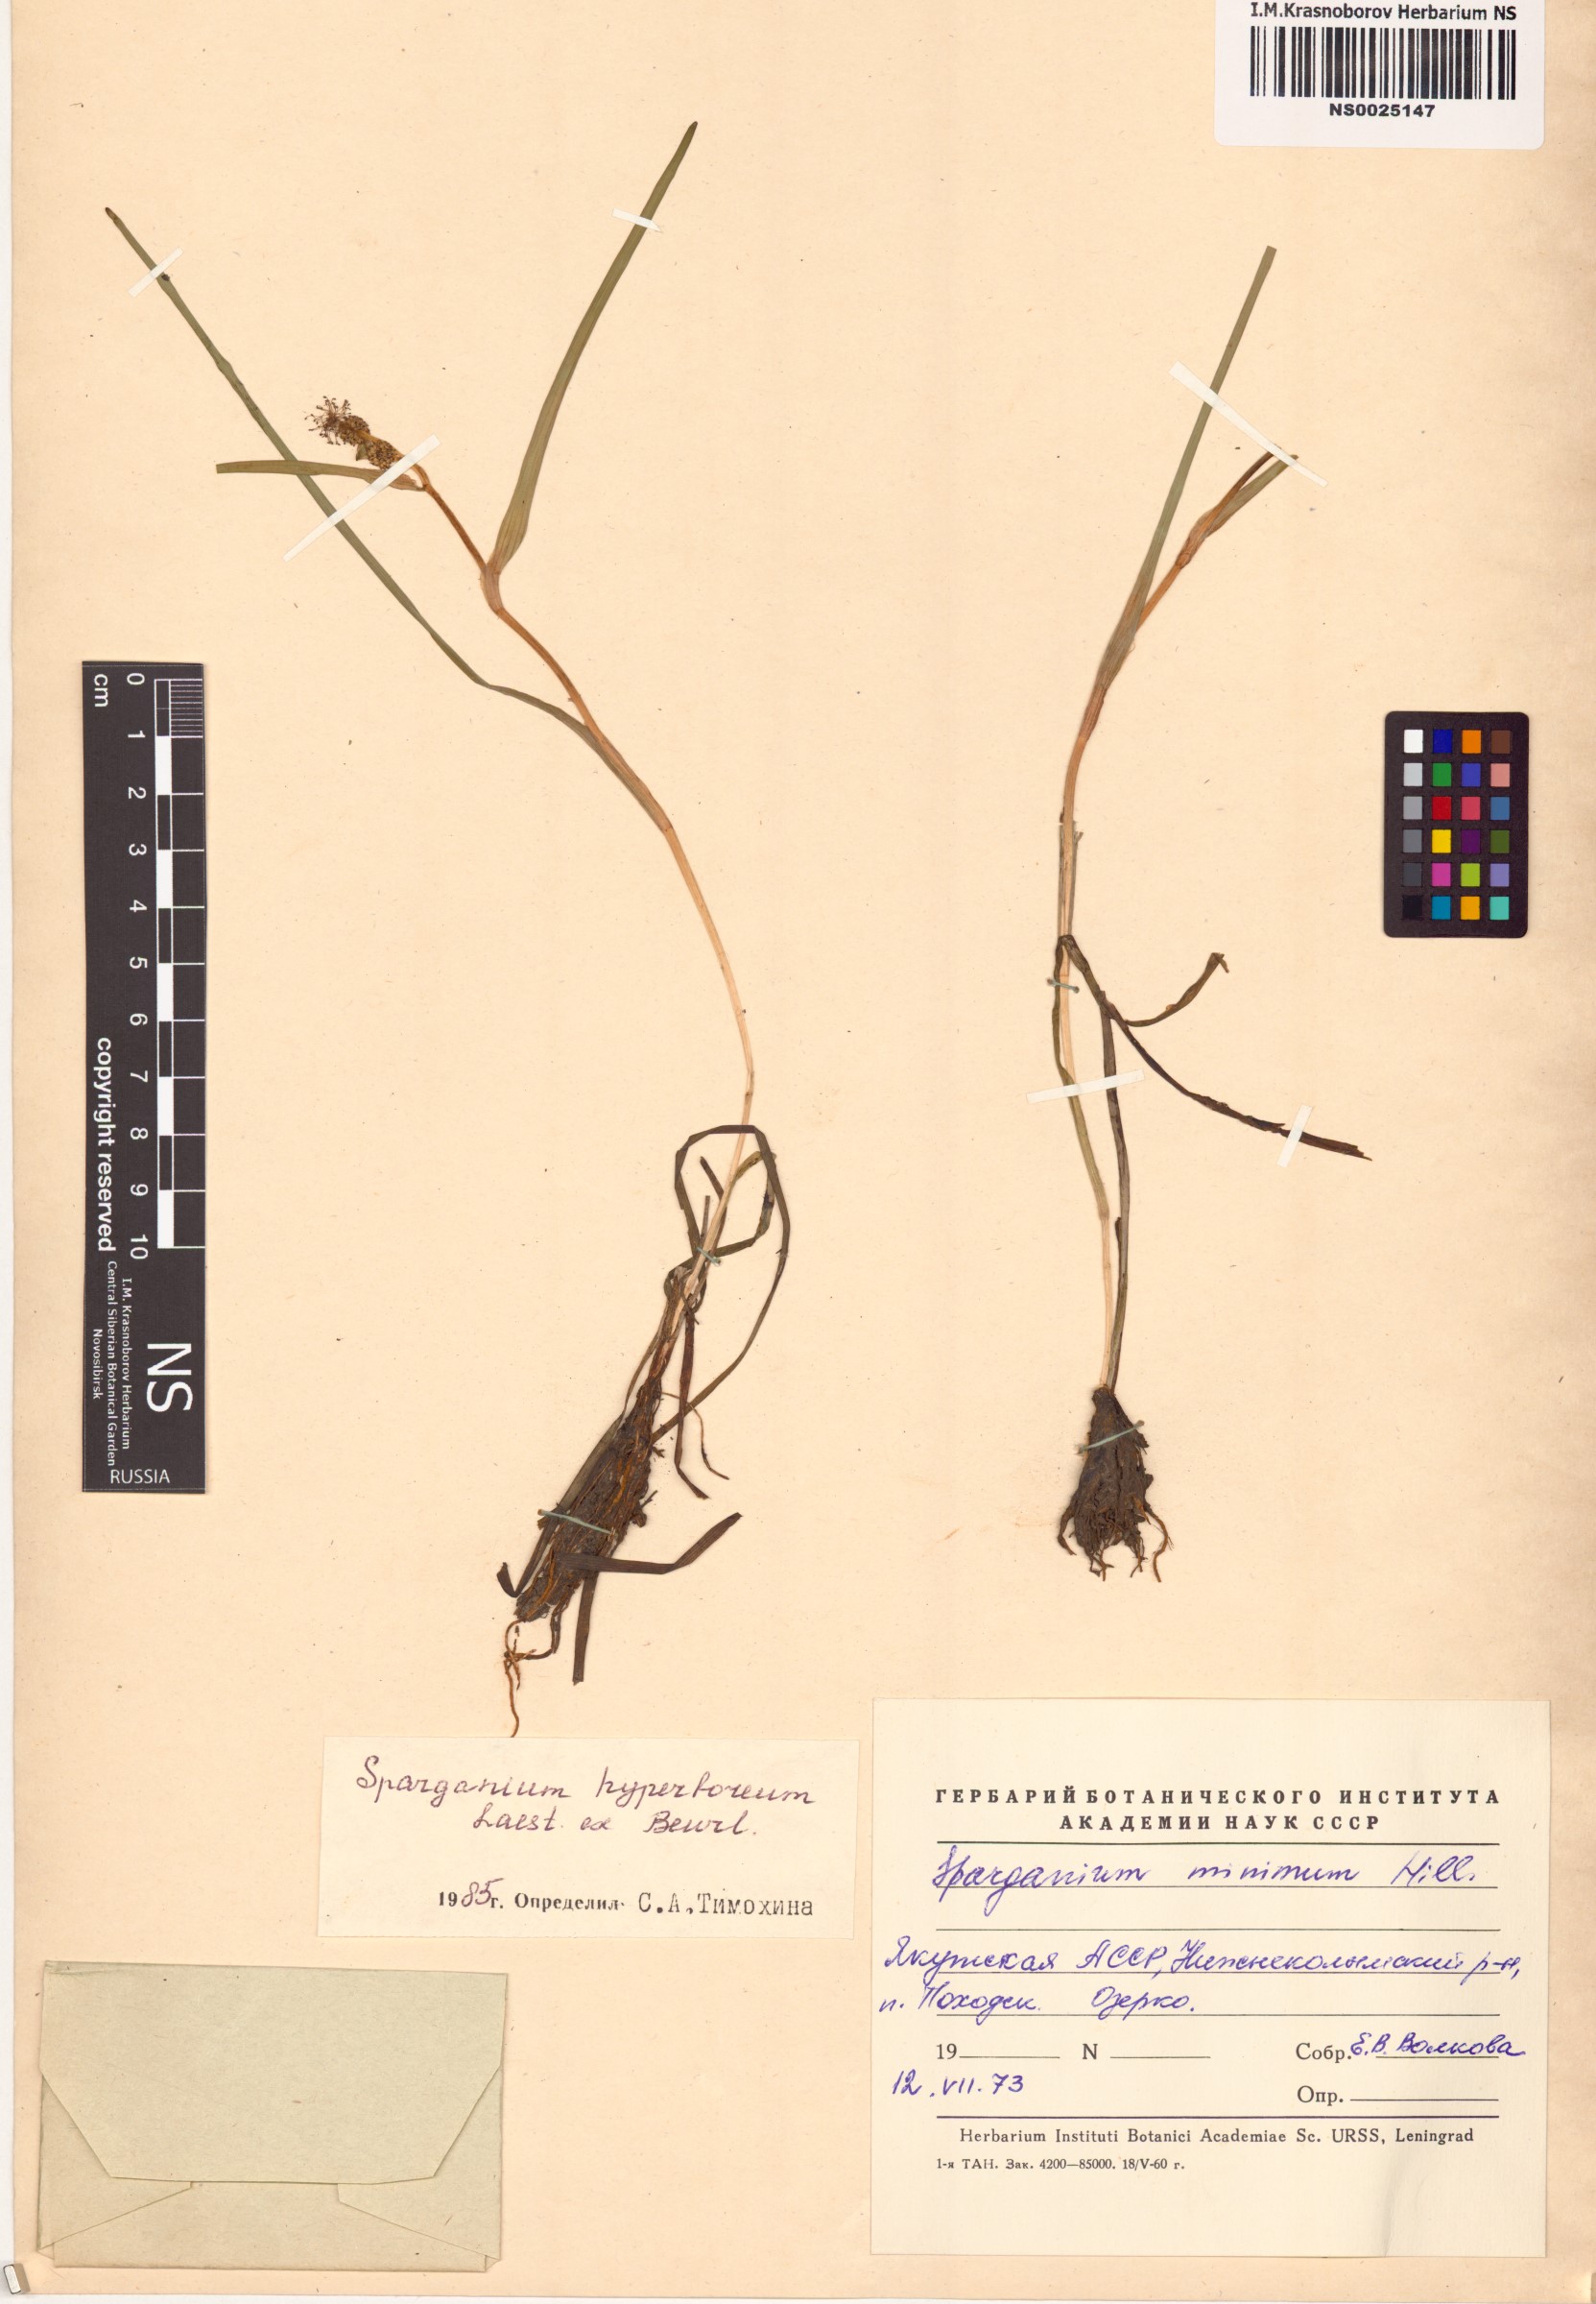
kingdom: Plantae
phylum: Tracheophyta
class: Liliopsida
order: Poales
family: Typhaceae
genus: Sparganium
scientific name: Sparganium hyperboreum
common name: Arctic burreed
